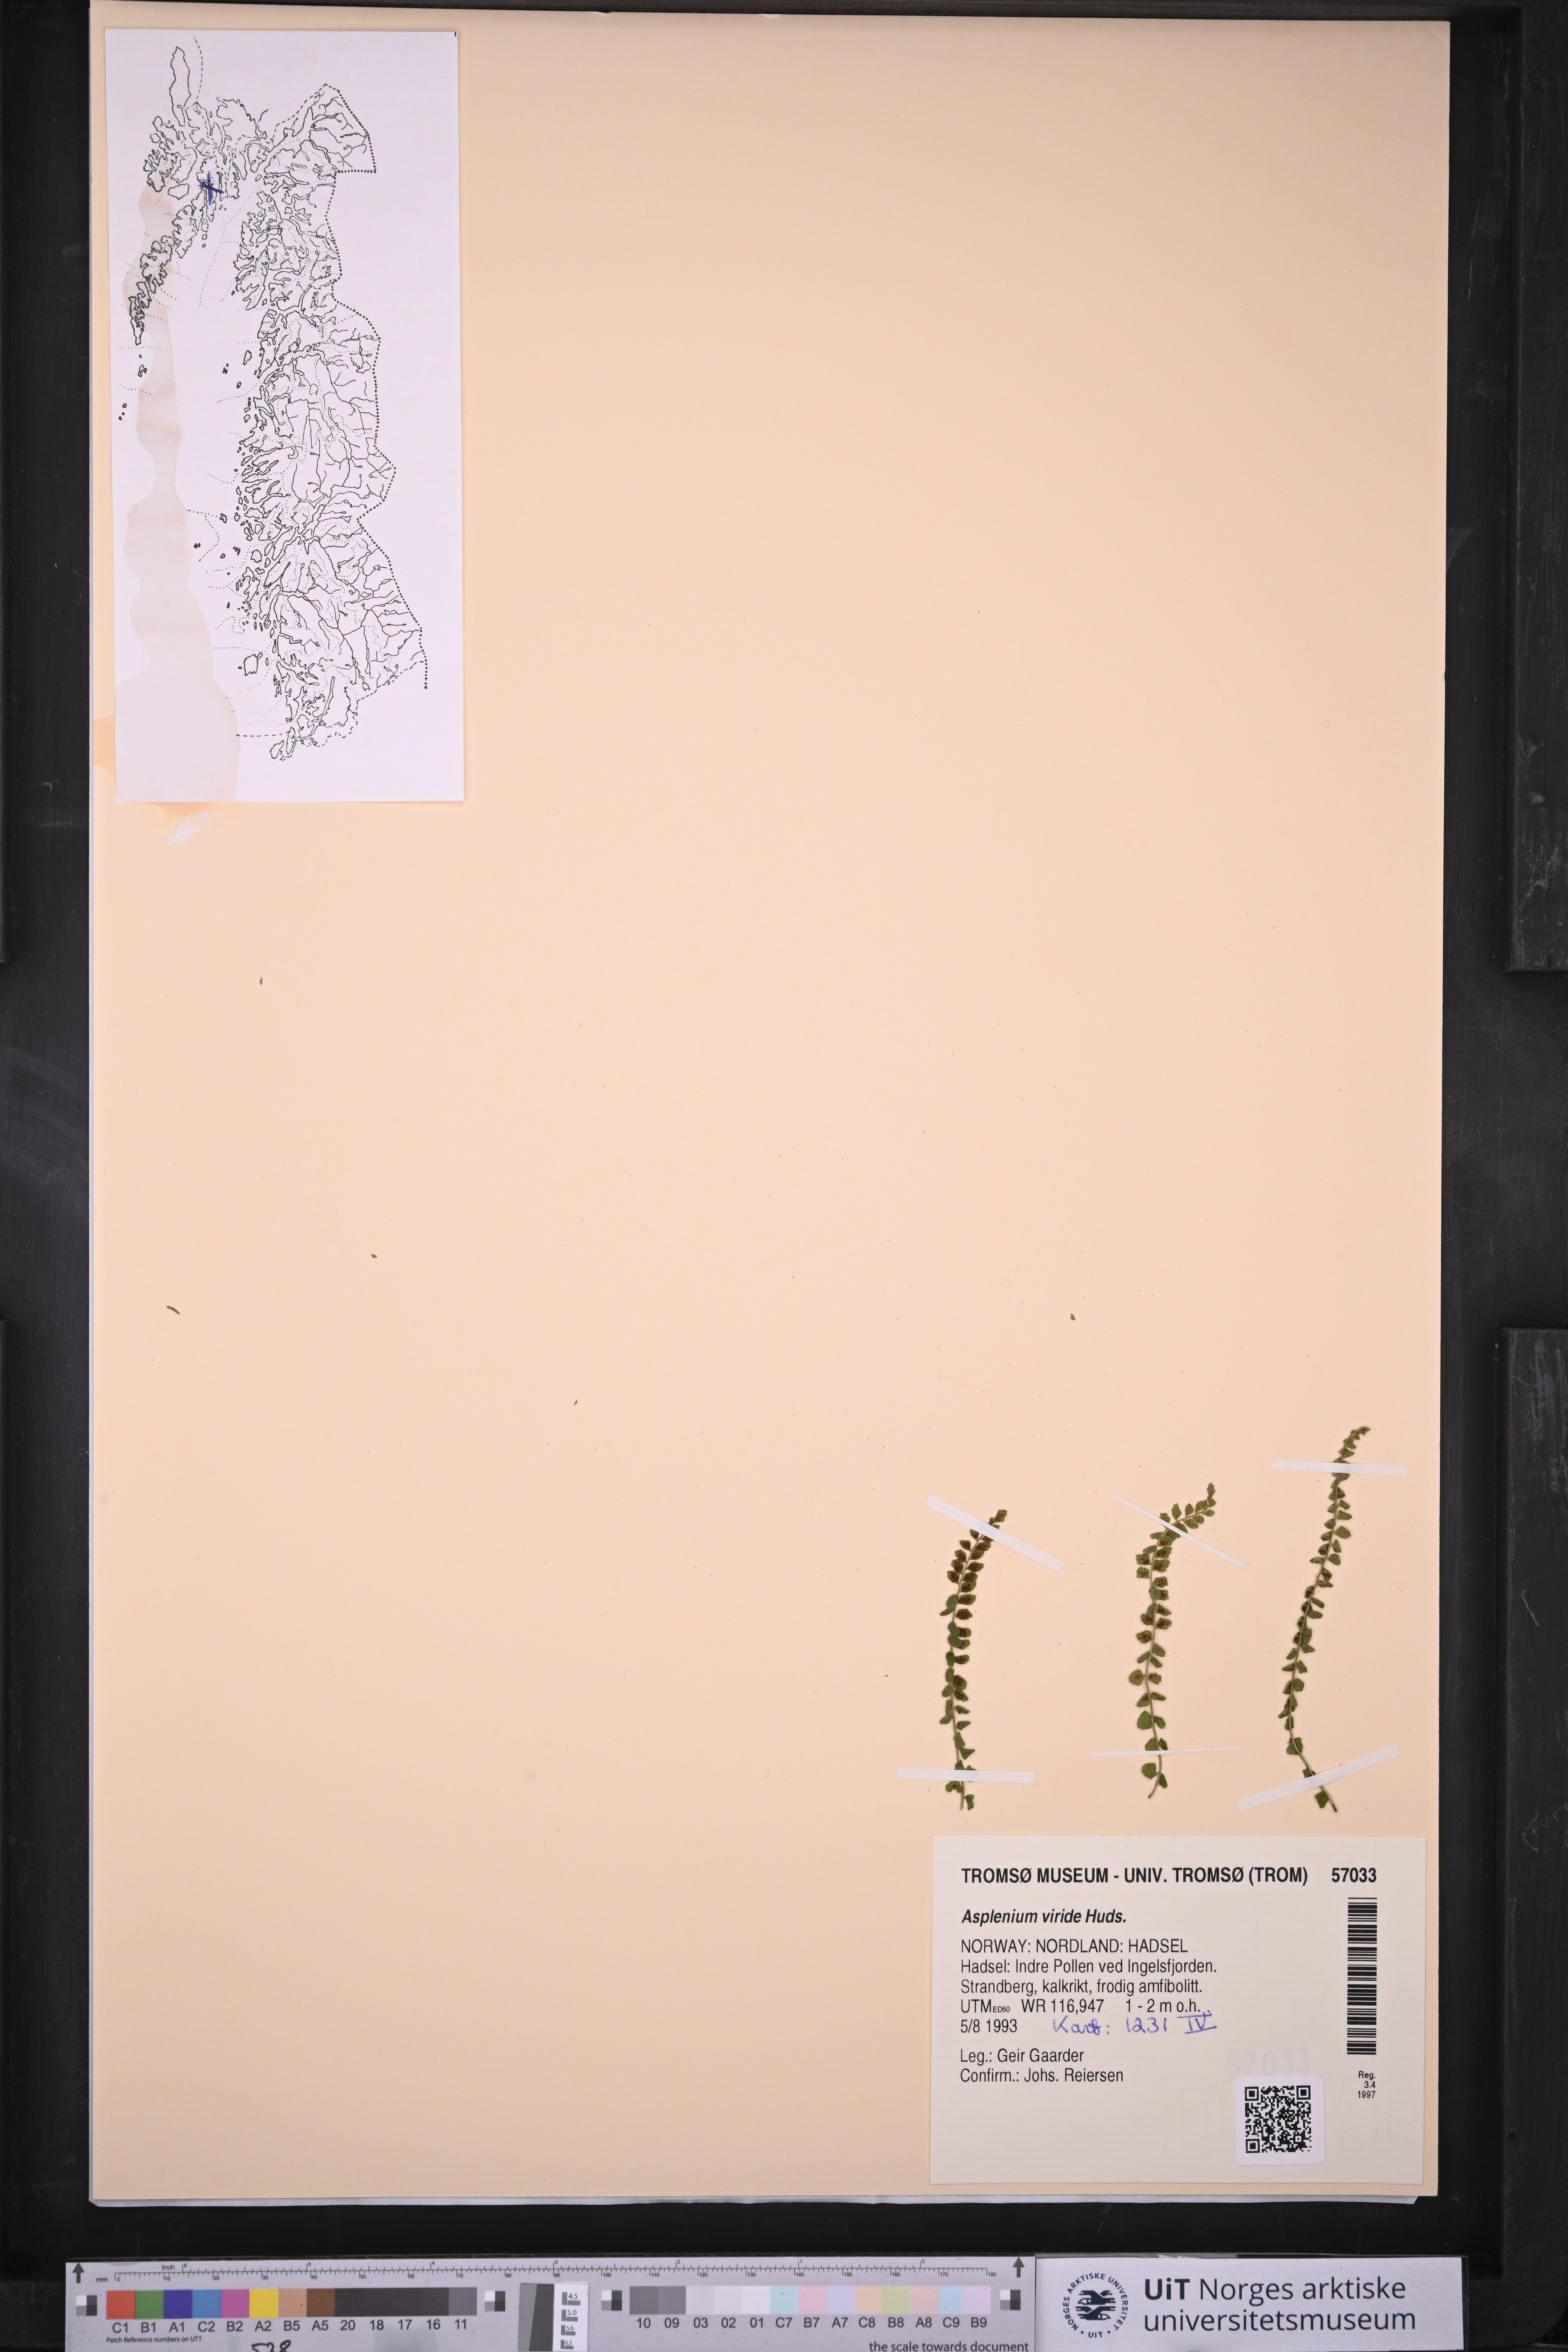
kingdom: Plantae
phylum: Tracheophyta
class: Polypodiopsida
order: Polypodiales
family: Aspleniaceae
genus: Asplenium
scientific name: Asplenium viride
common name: Green spleenwort
